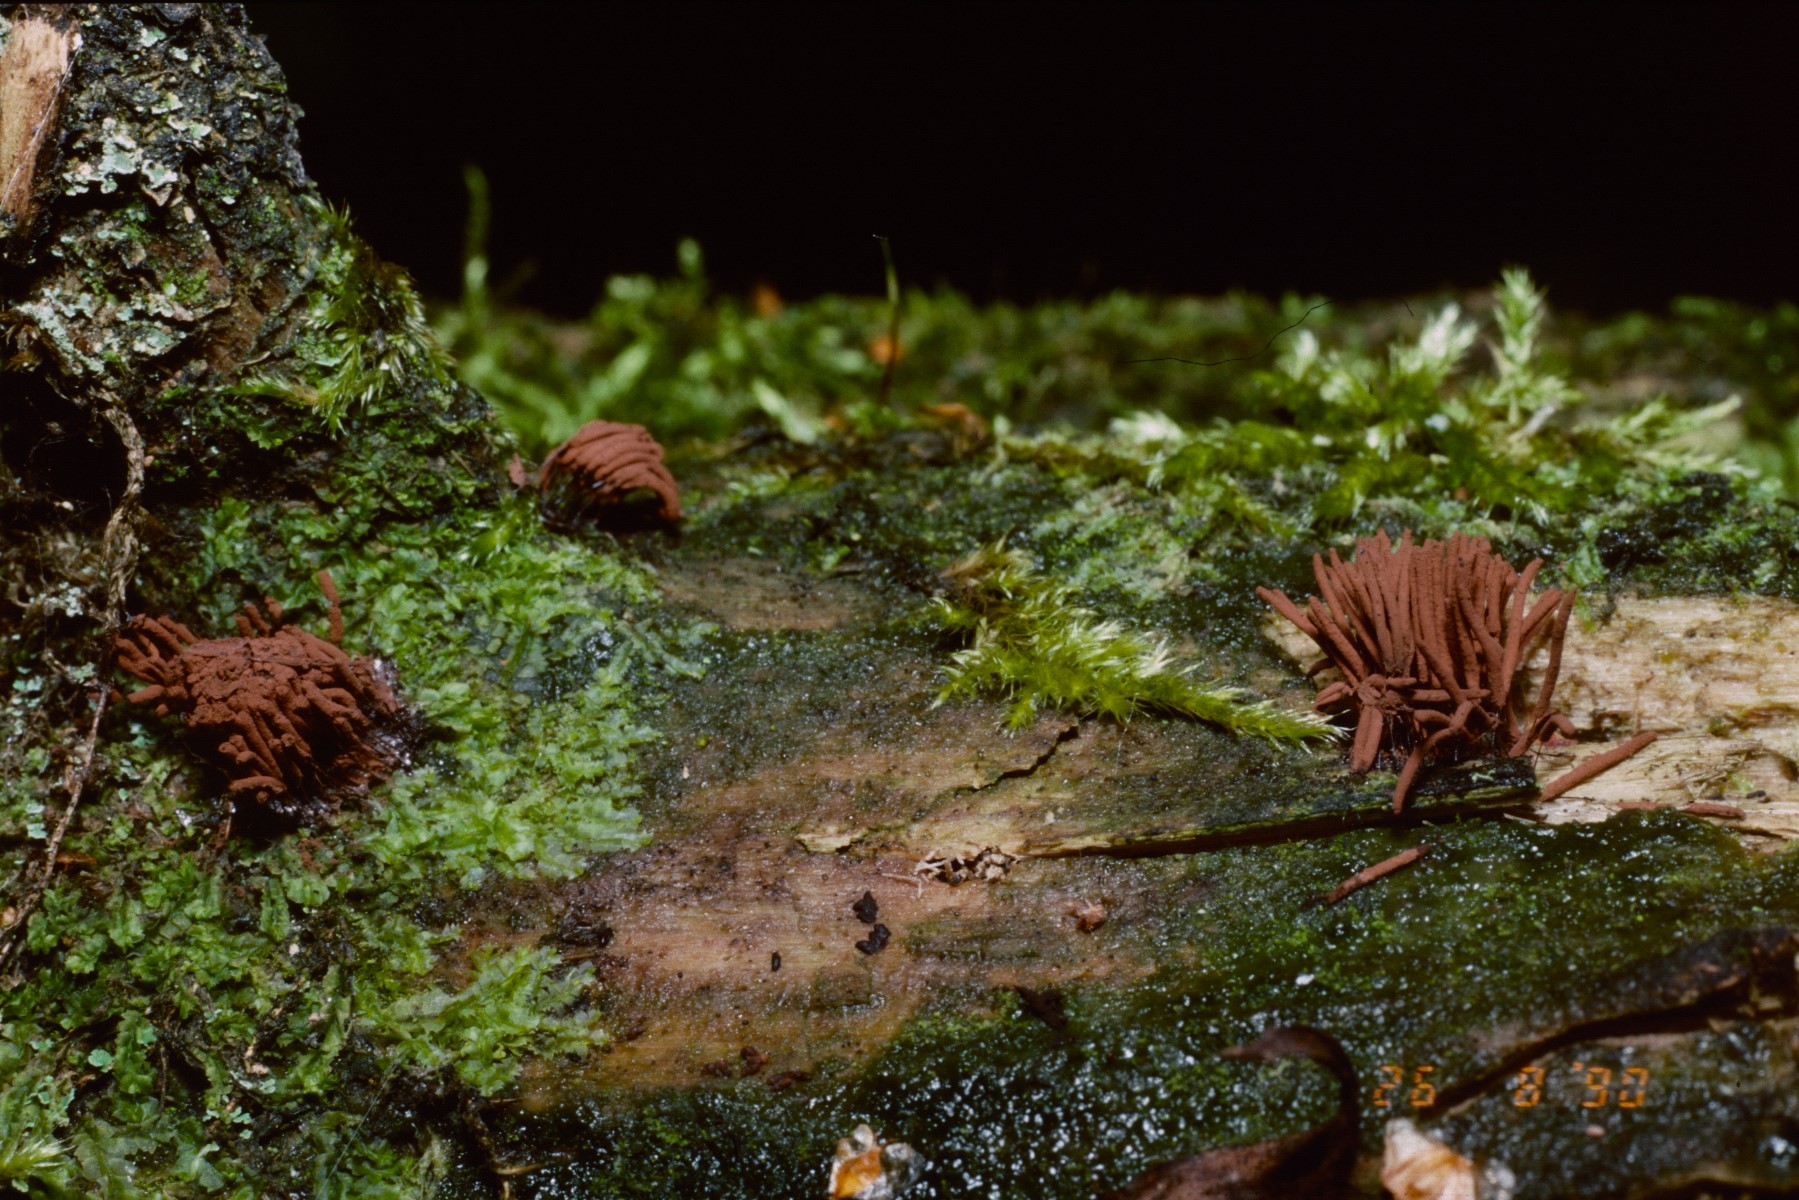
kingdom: Protozoa
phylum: Mycetozoa
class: Myxomycetes
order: Stemonitidales
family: Stemonitidaceae
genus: Stemonitis
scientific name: Stemonitis fusca
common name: sodbrun støvkølle
